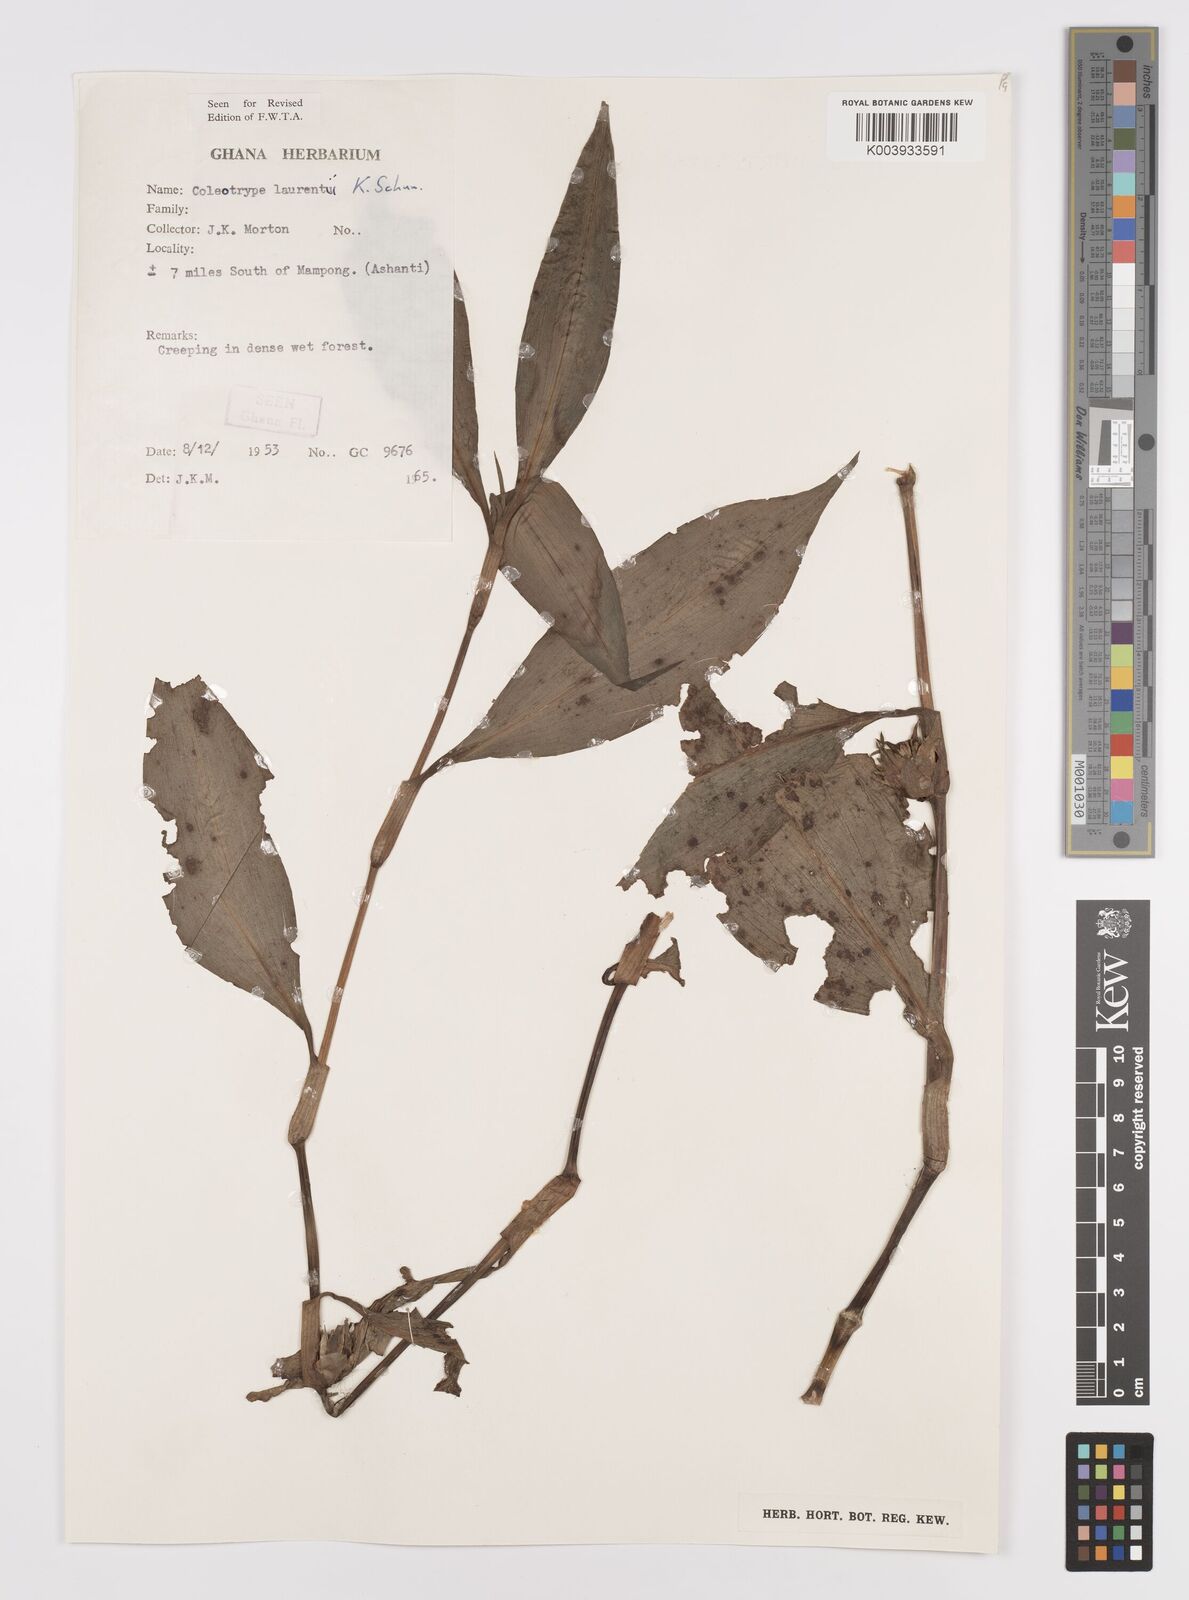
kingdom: Plantae
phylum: Tracheophyta
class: Liliopsida
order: Commelinales
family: Commelinaceae
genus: Coleotrype
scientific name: Coleotrype laurentii
